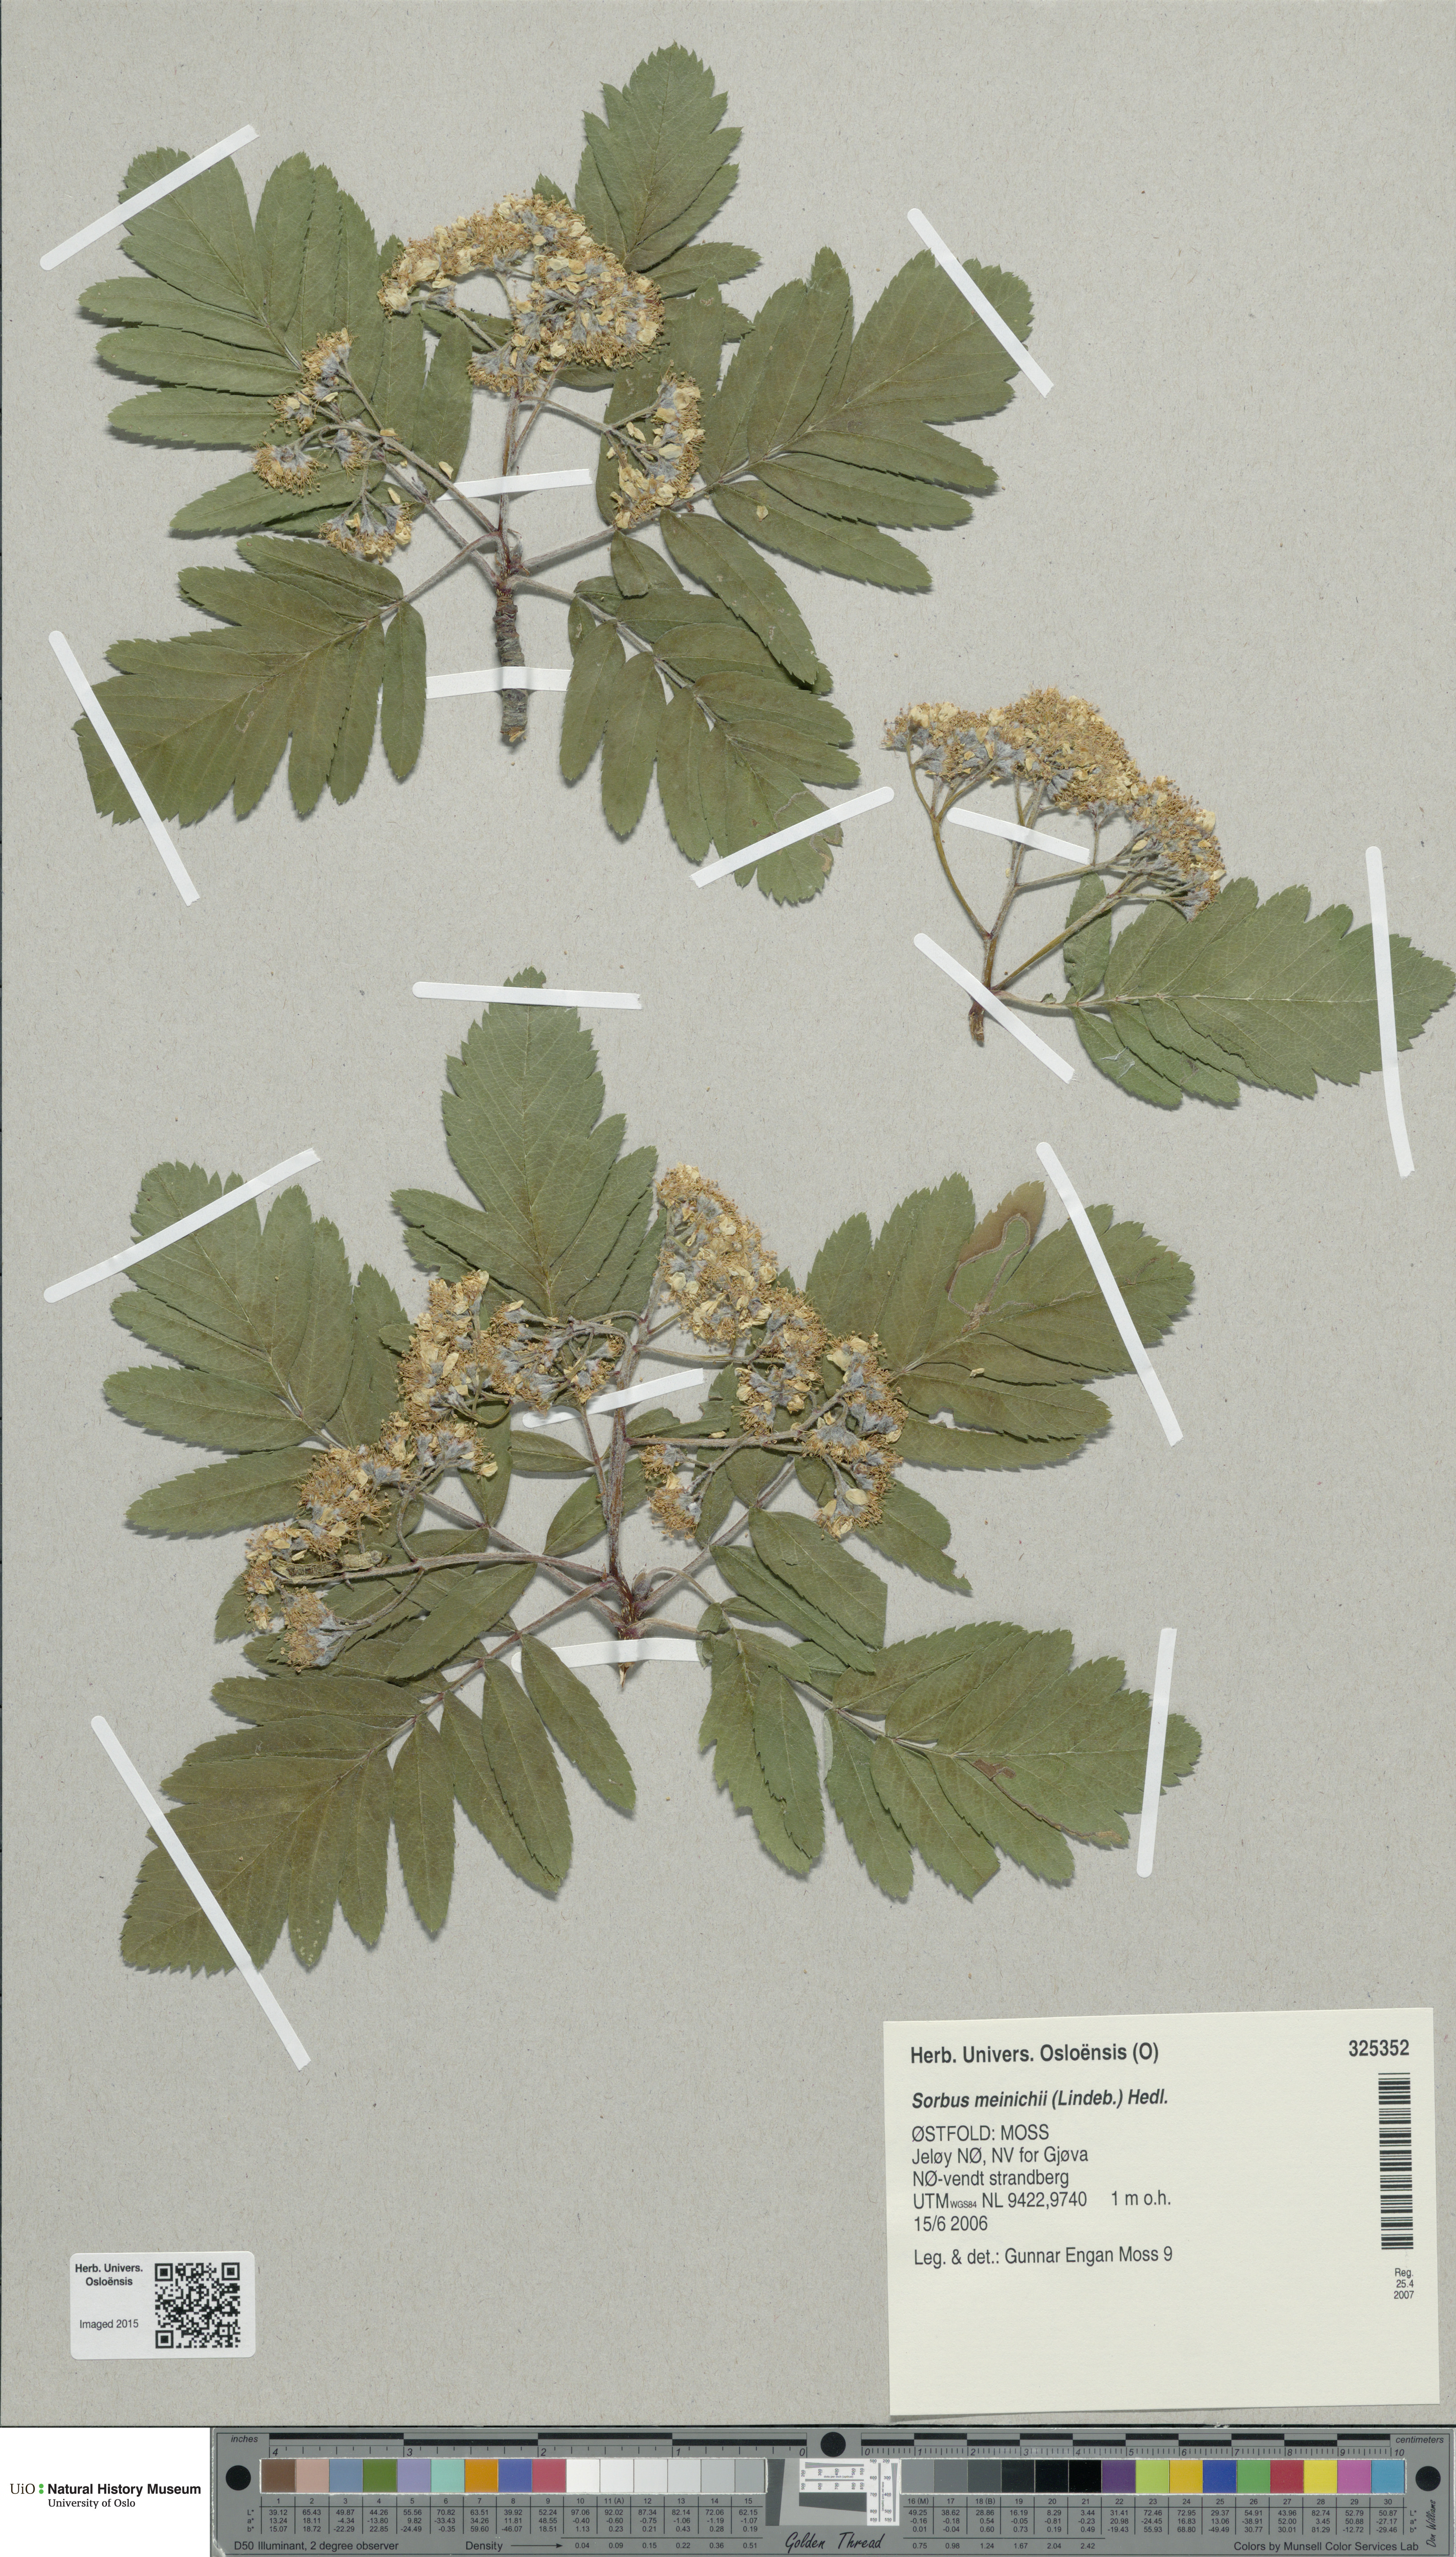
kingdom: Plantae
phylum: Tracheophyta
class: Magnoliopsida
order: Rosales
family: Rosaceae
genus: Hedlundia
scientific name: Hedlundia meinichii
